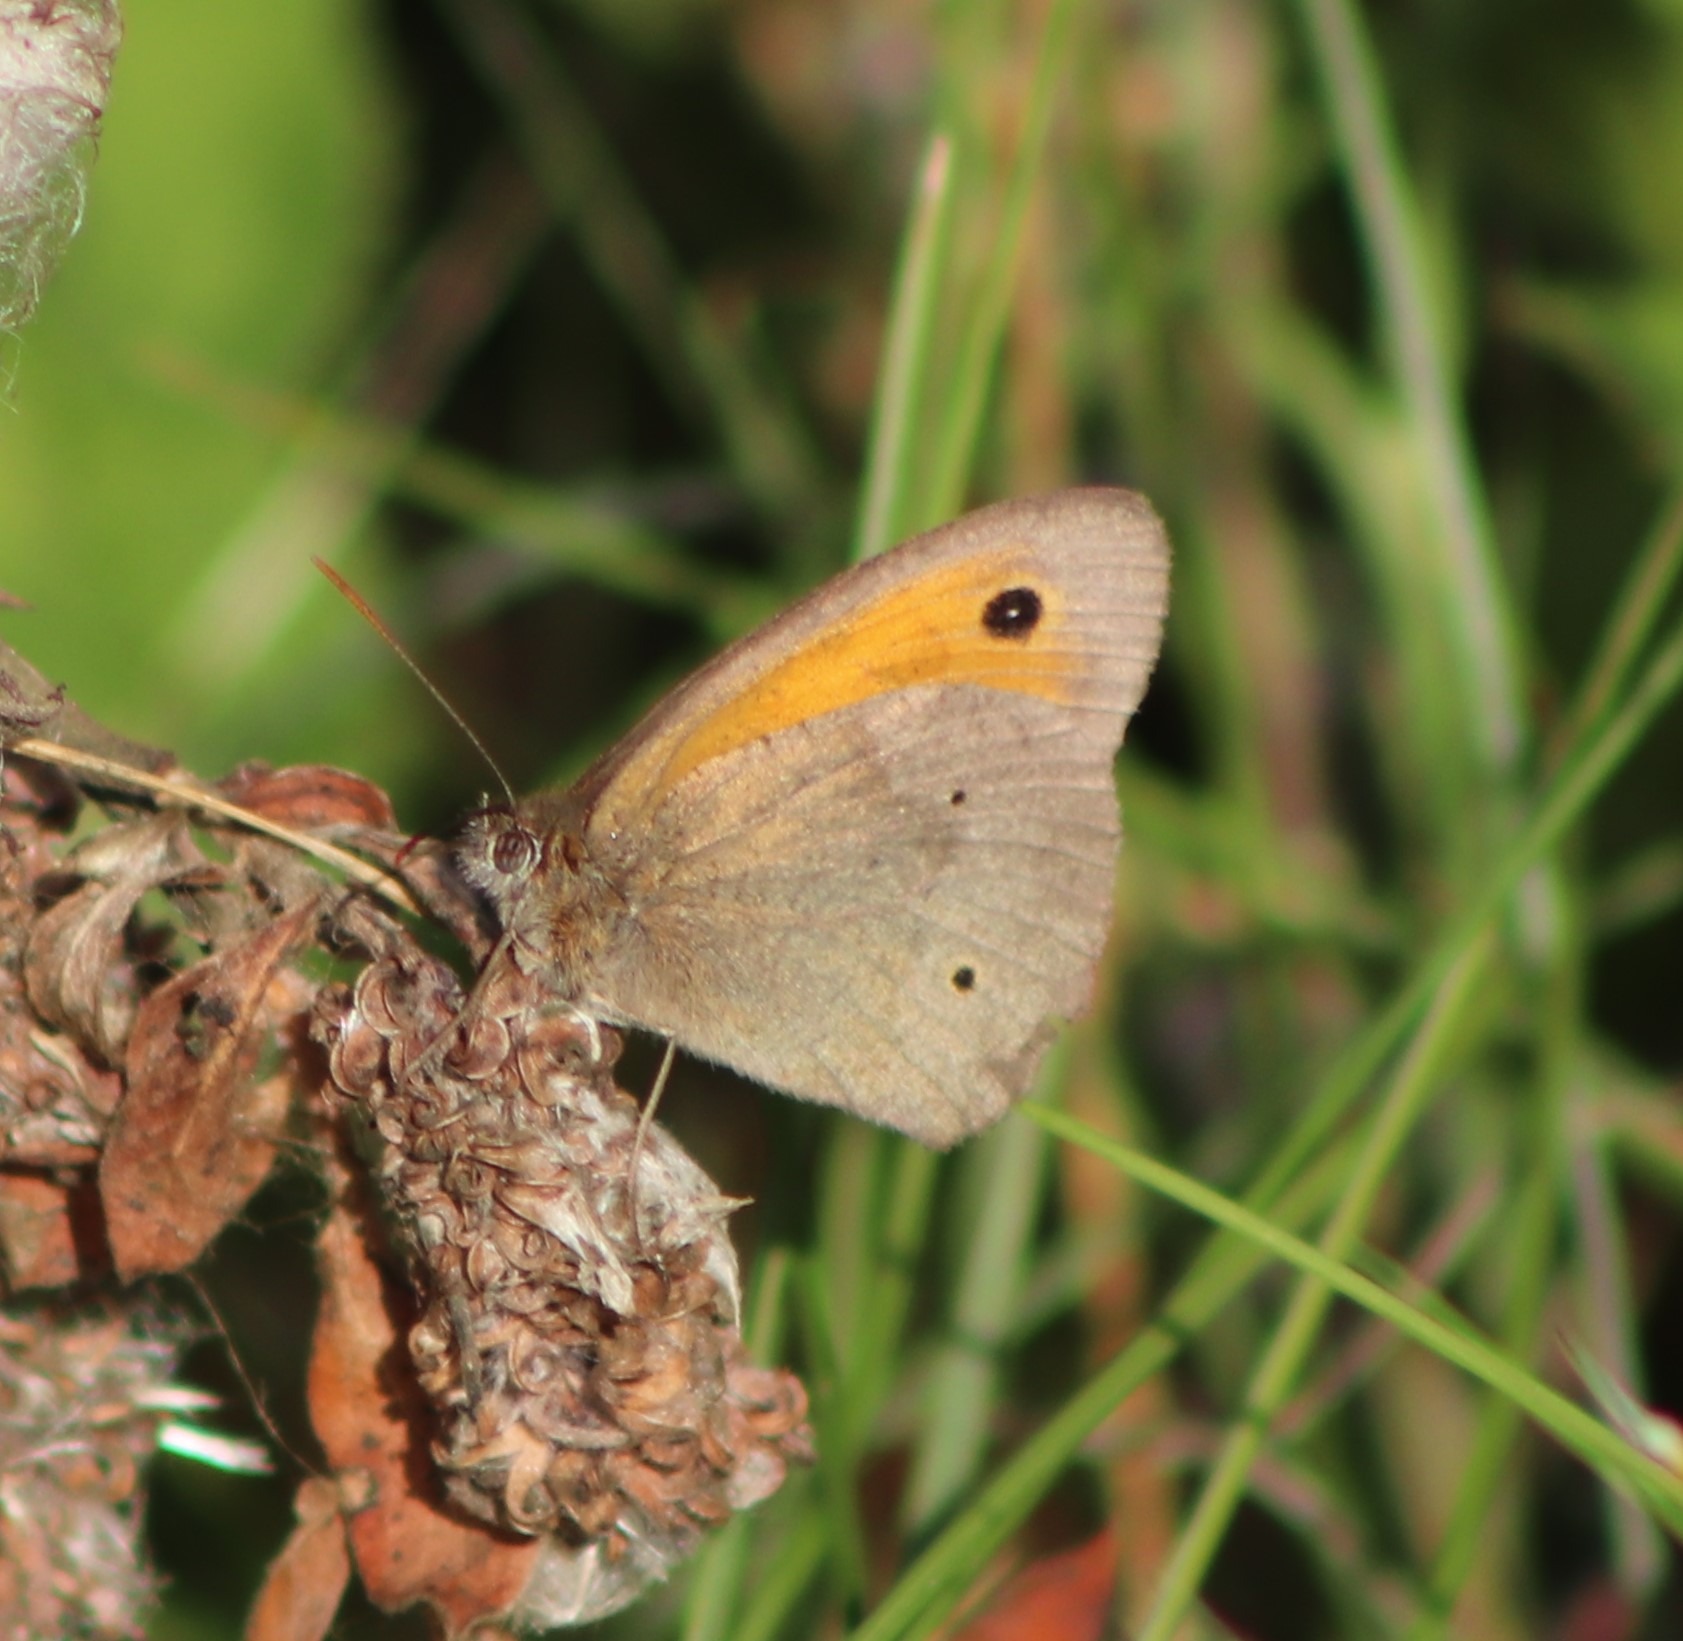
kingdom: Animalia
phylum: Arthropoda
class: Insecta
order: Lepidoptera
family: Nymphalidae
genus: Maniola
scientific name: Maniola jurtina
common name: Græsrandøje
